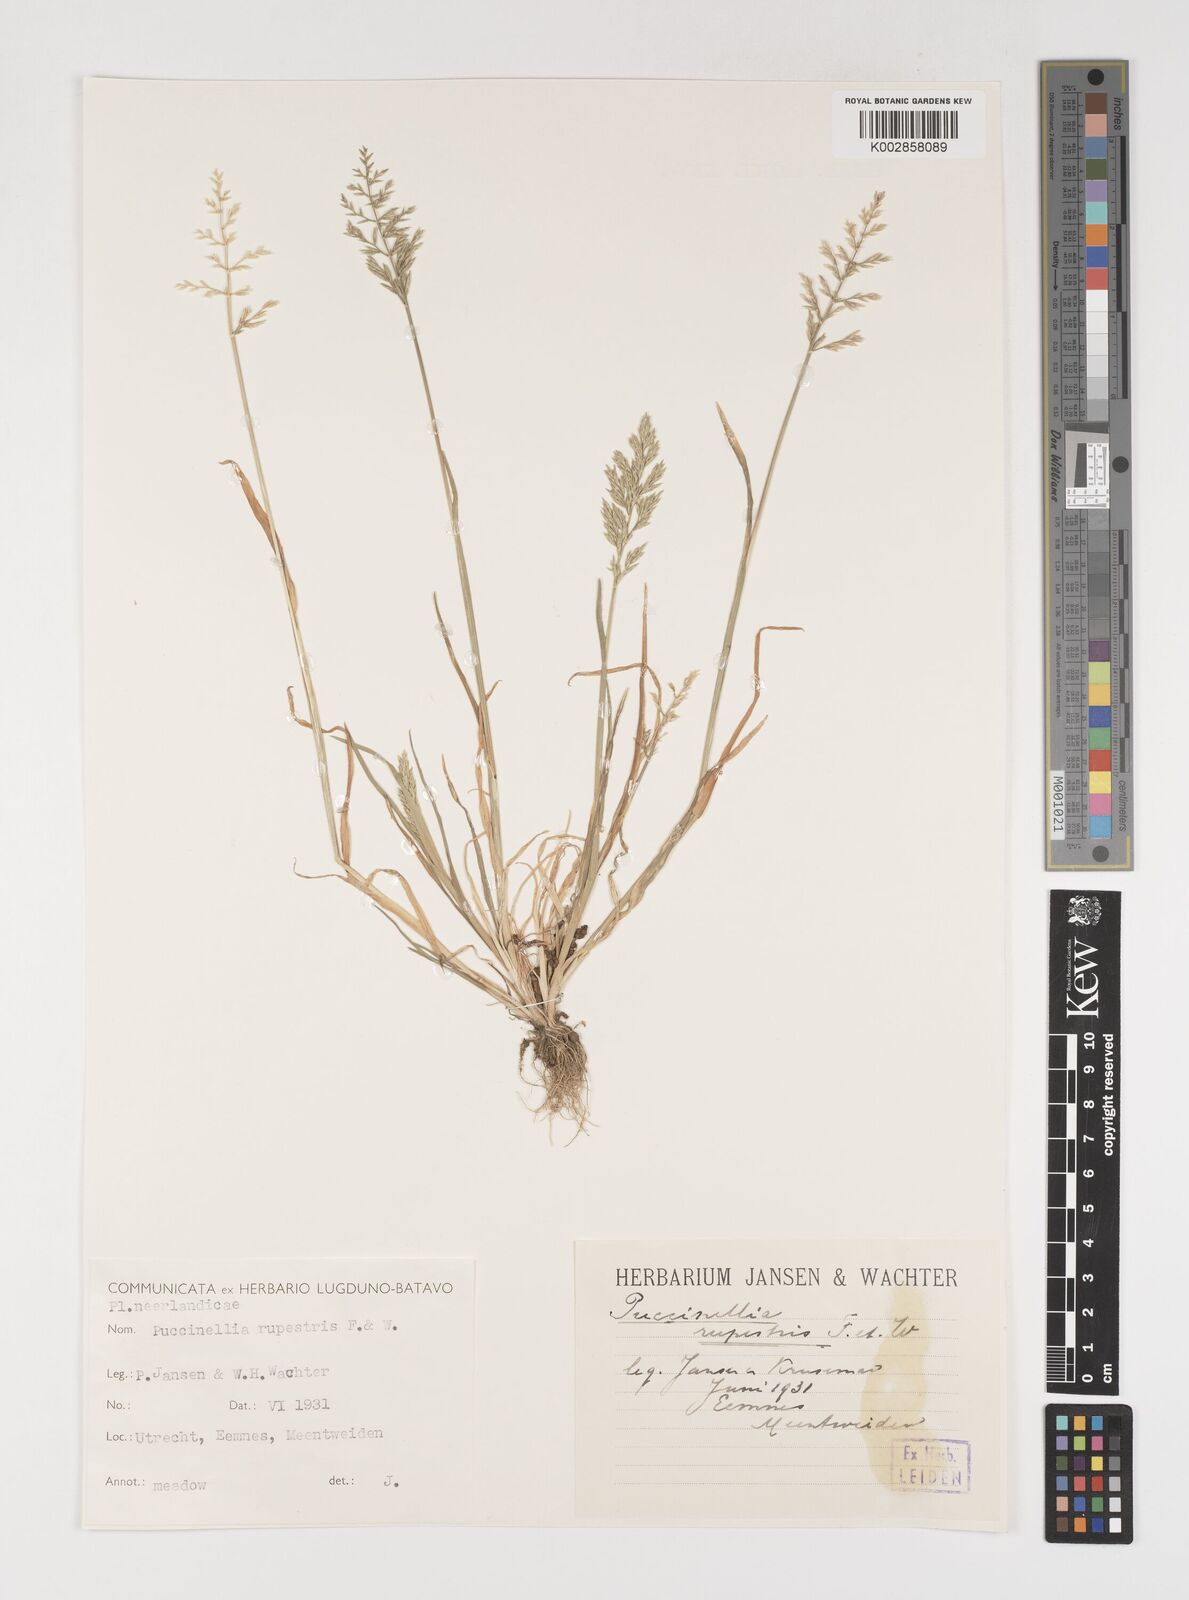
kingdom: Plantae
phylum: Tracheophyta
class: Liliopsida
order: Poales
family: Poaceae
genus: Puccinellia
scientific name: Puccinellia rupestris
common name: Stiff saltmarsh-grass
